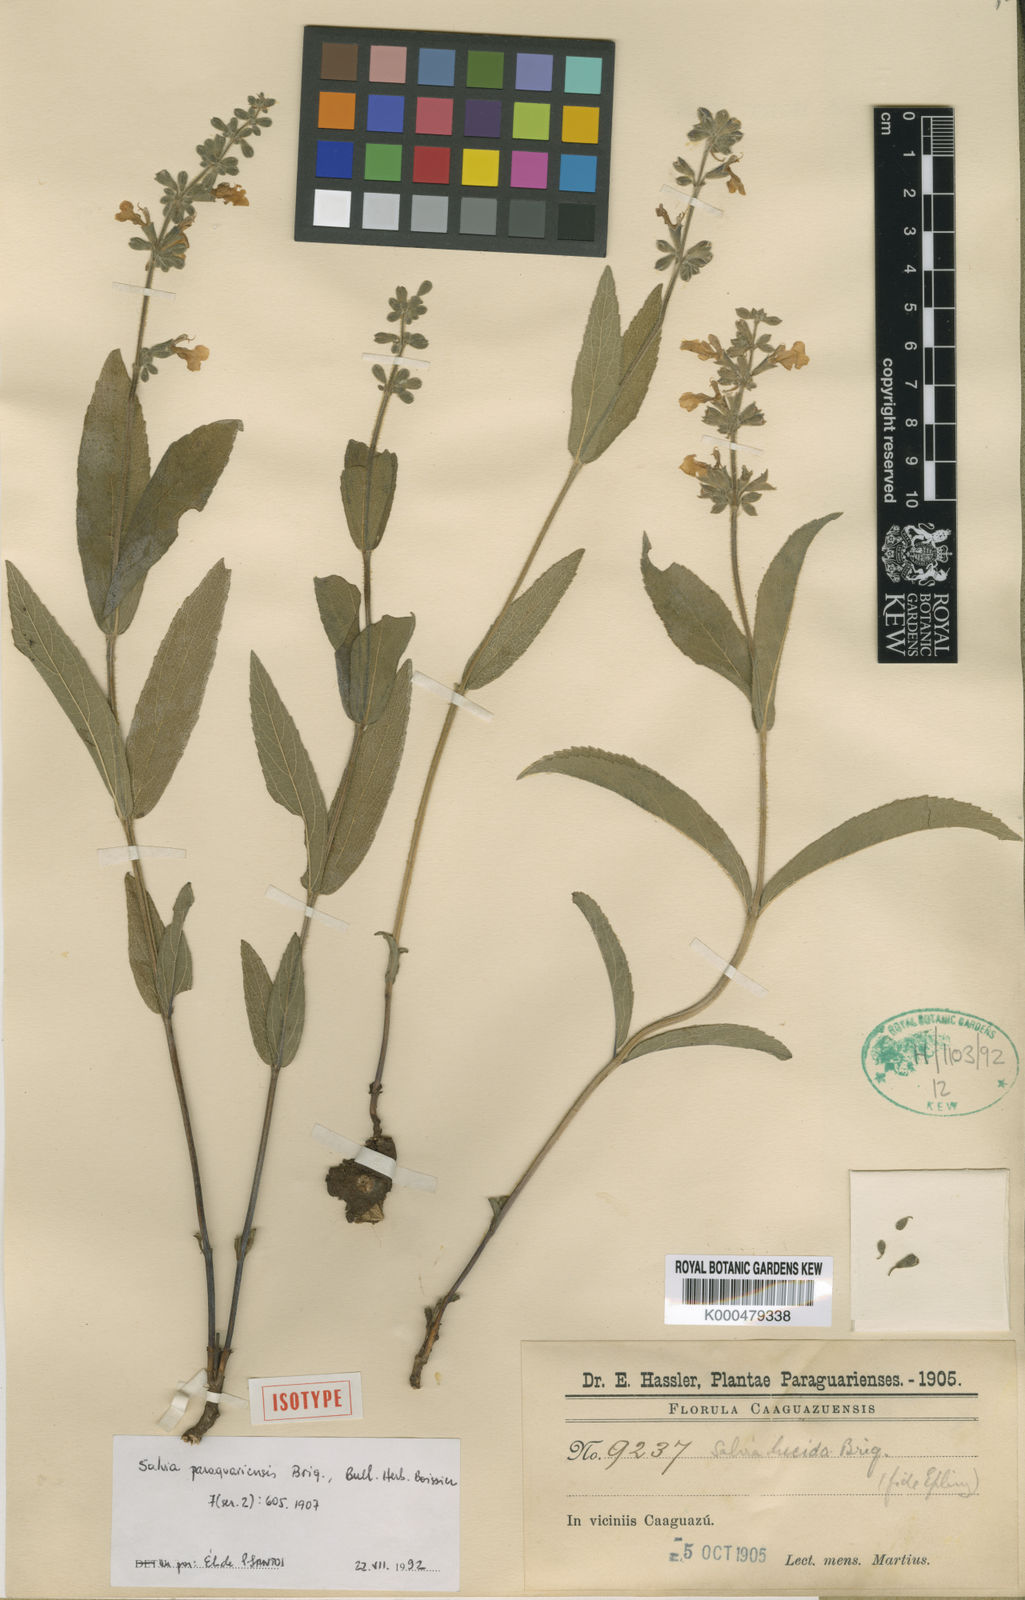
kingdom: Plantae
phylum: Tracheophyta
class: Magnoliopsida
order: Lamiales
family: Lamiaceae
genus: Salvia
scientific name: Salvia paraguariensis
